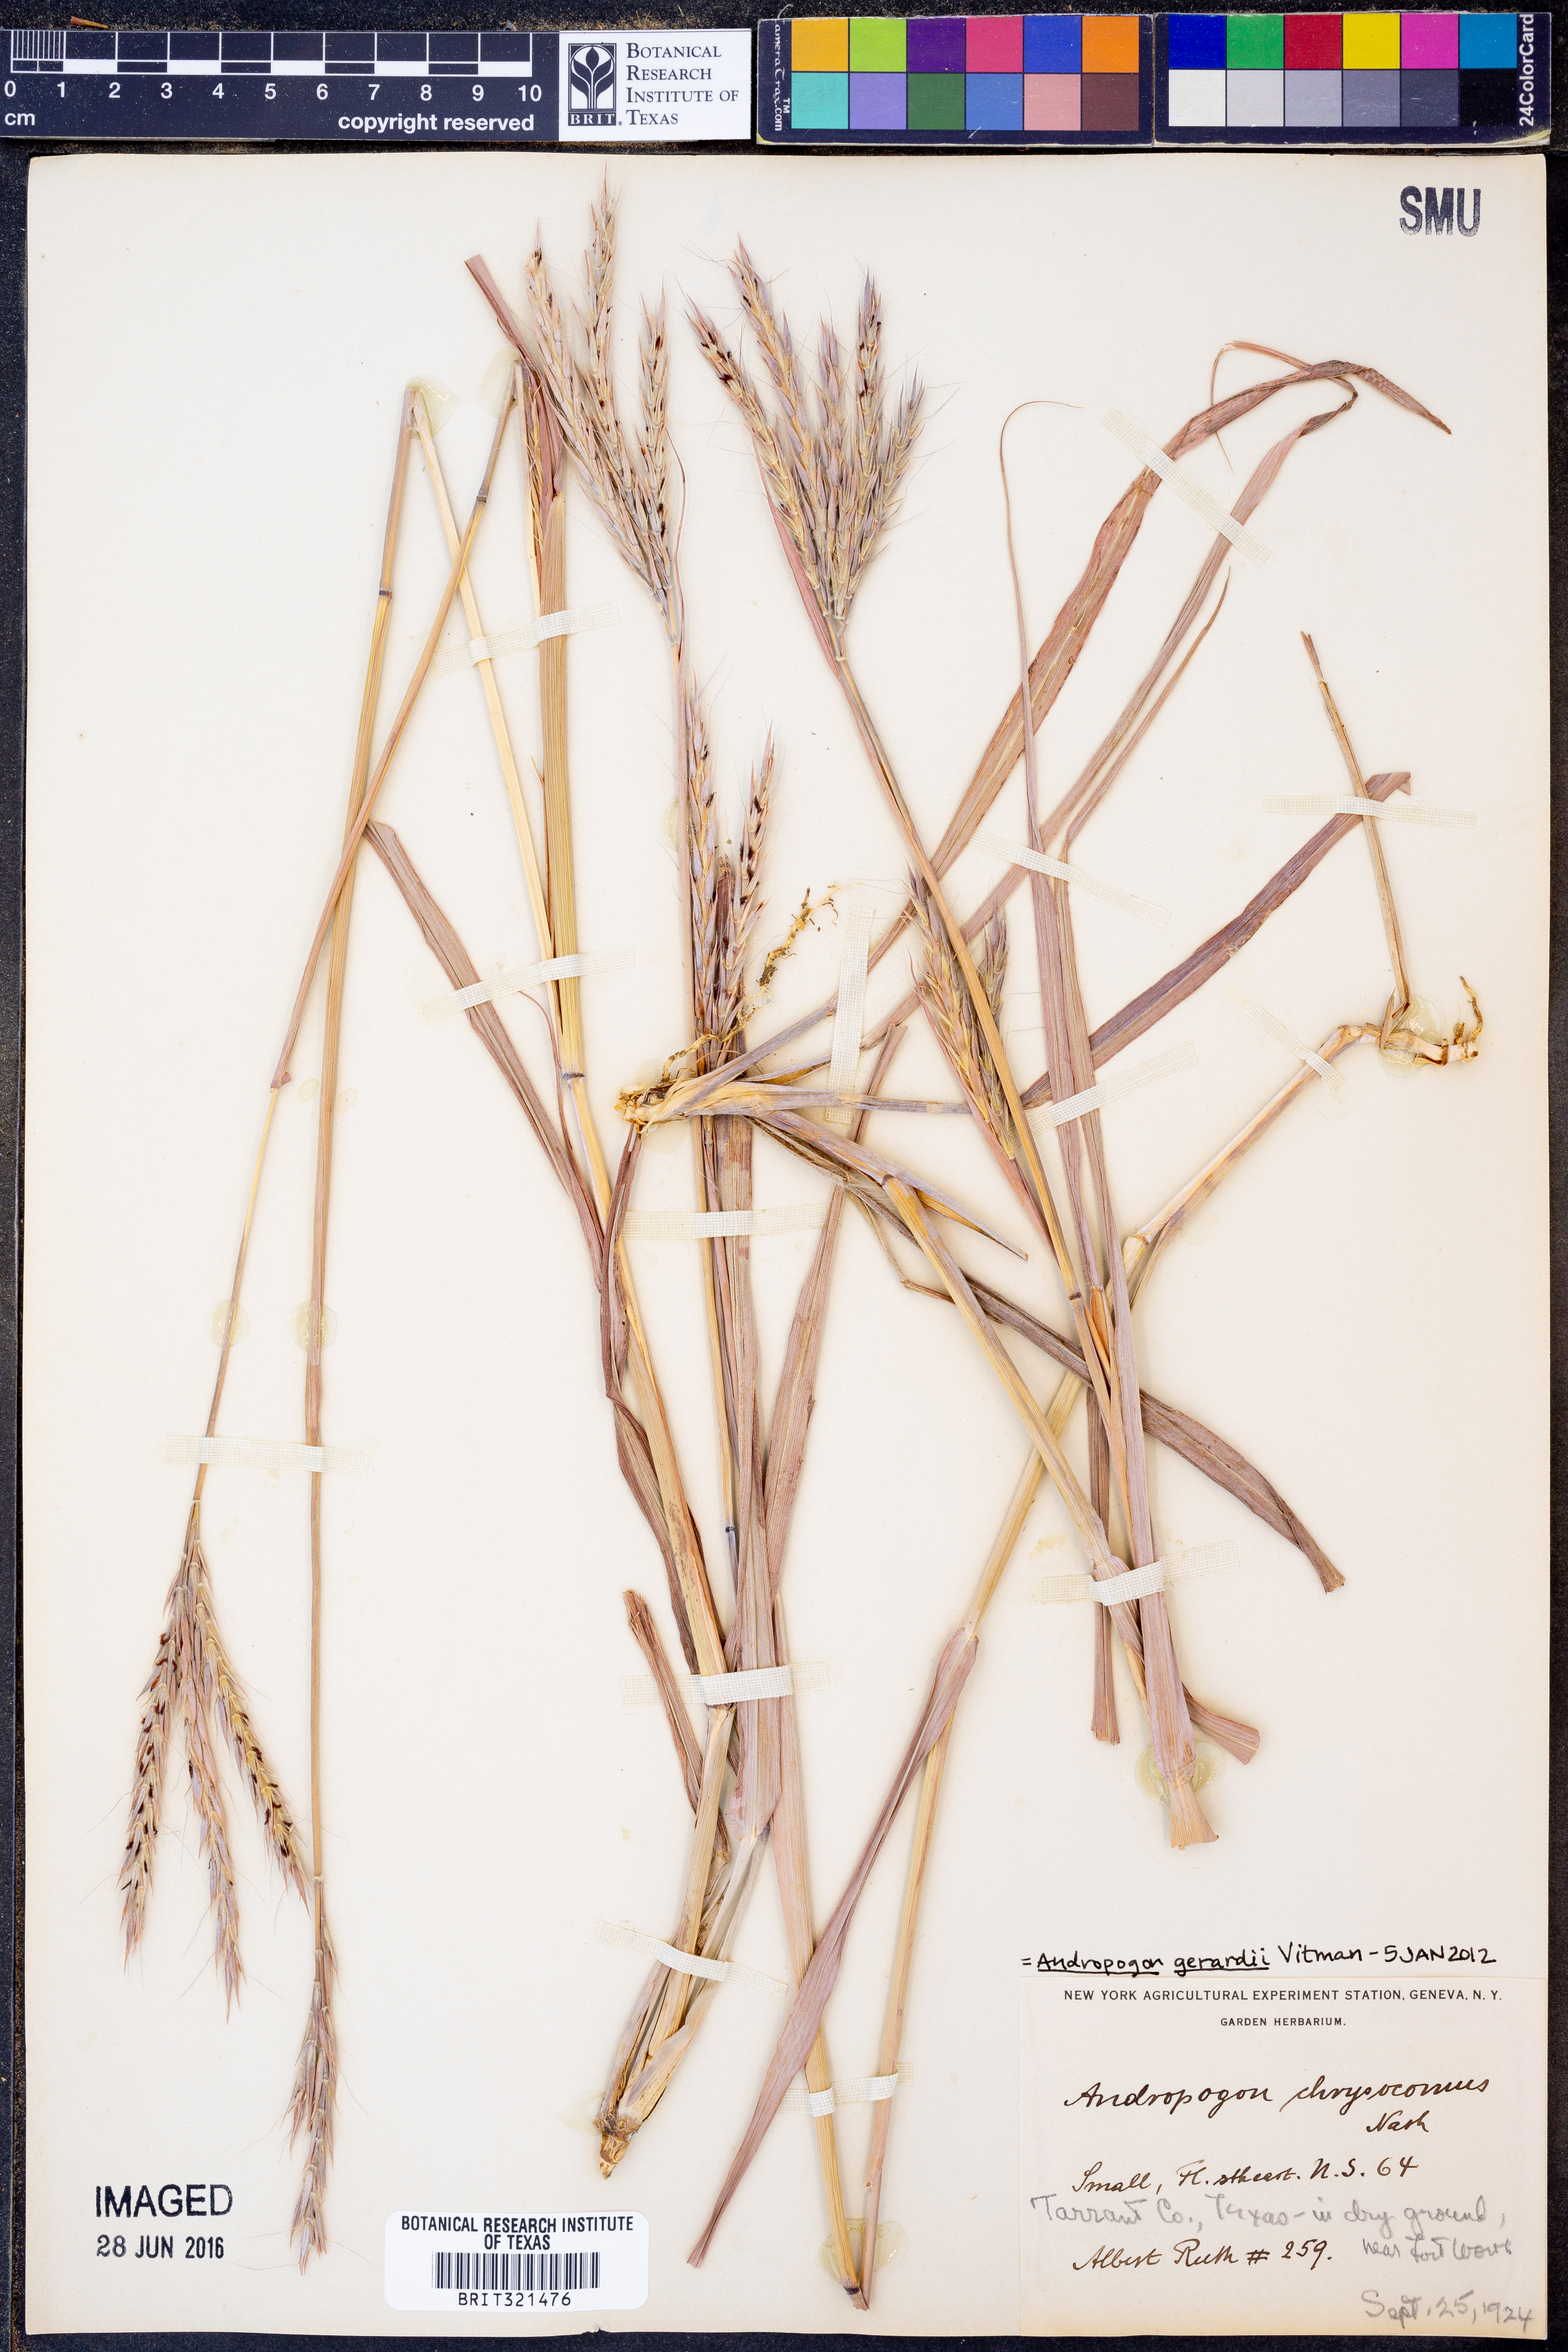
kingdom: Plantae
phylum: Tracheophyta
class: Liliopsida
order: Poales
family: Poaceae
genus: Andropogon
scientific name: Andropogon gerardi
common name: Big bluestem
